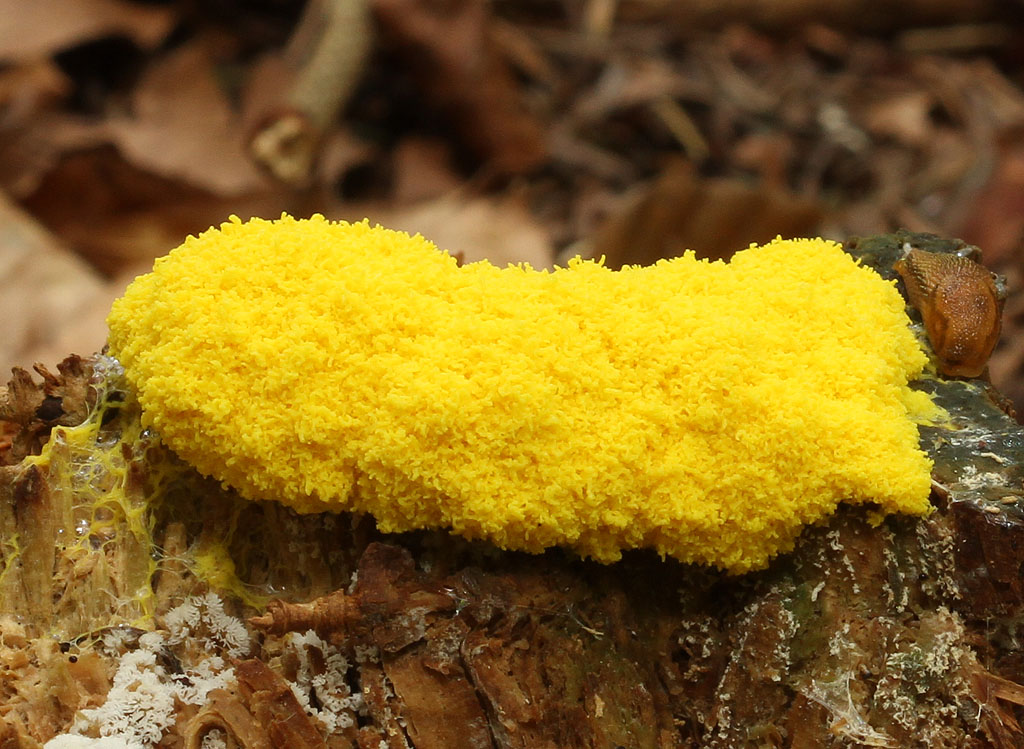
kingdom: Protozoa
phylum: Mycetozoa
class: Myxomycetes
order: Physarales
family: Physaraceae
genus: Fuligo
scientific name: Fuligo septica
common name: gul troldsmør
